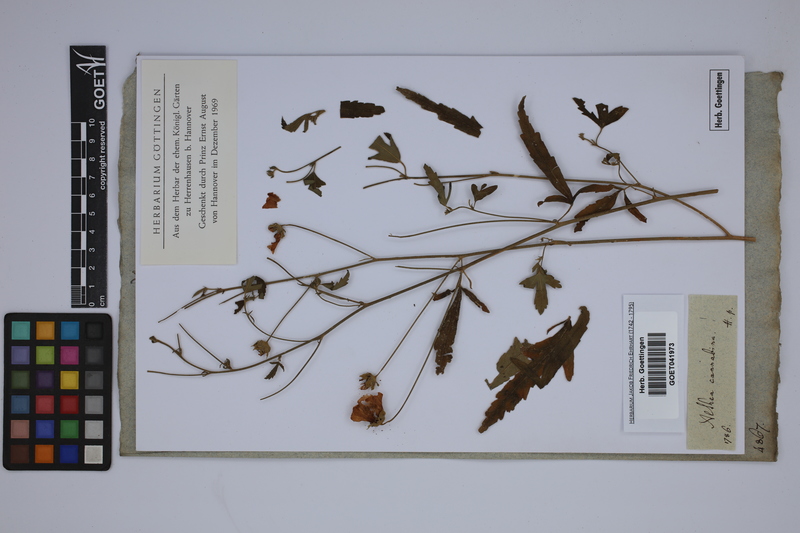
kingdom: Plantae
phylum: Tracheophyta
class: Magnoliopsida
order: Malvales
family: Malvaceae
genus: Althaea
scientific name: Althaea cannabina
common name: Palm-leaf marshmallow
